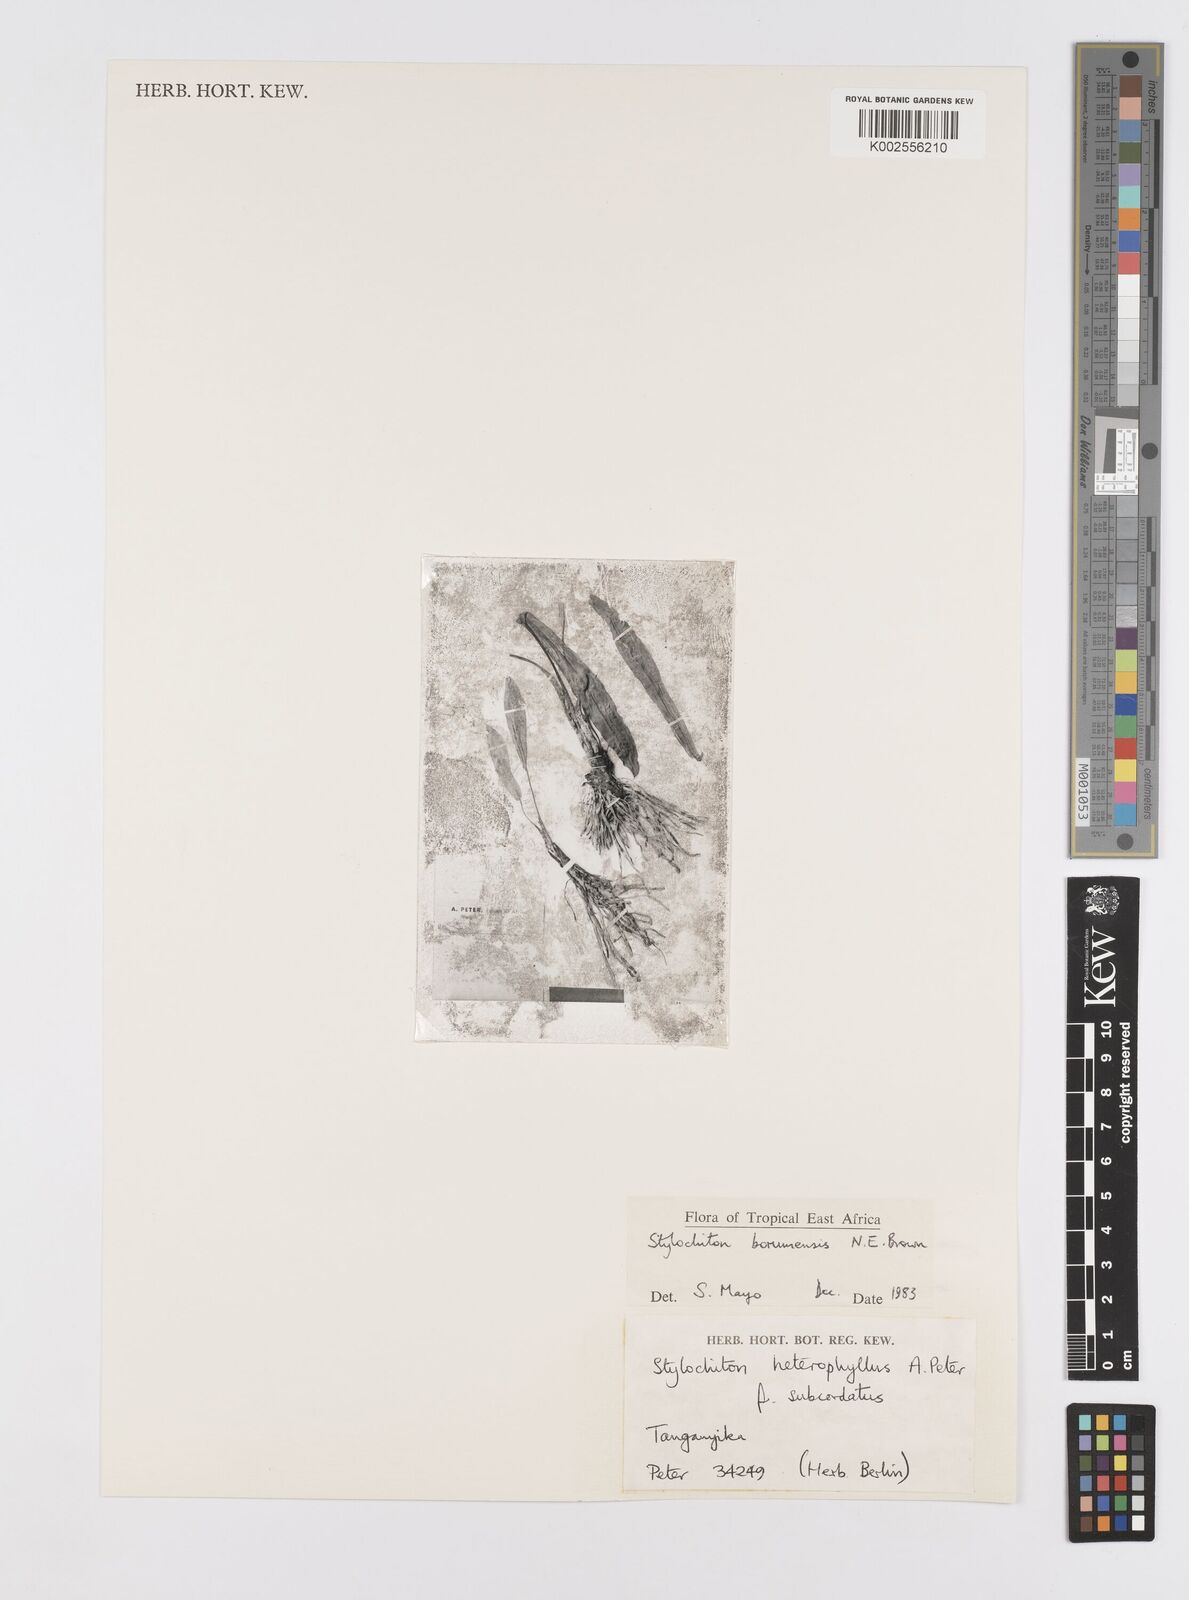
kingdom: Plantae
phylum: Tracheophyta
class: Liliopsida
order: Alismatales
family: Araceae
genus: Stylochaeton
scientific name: Stylochaeton borumense
